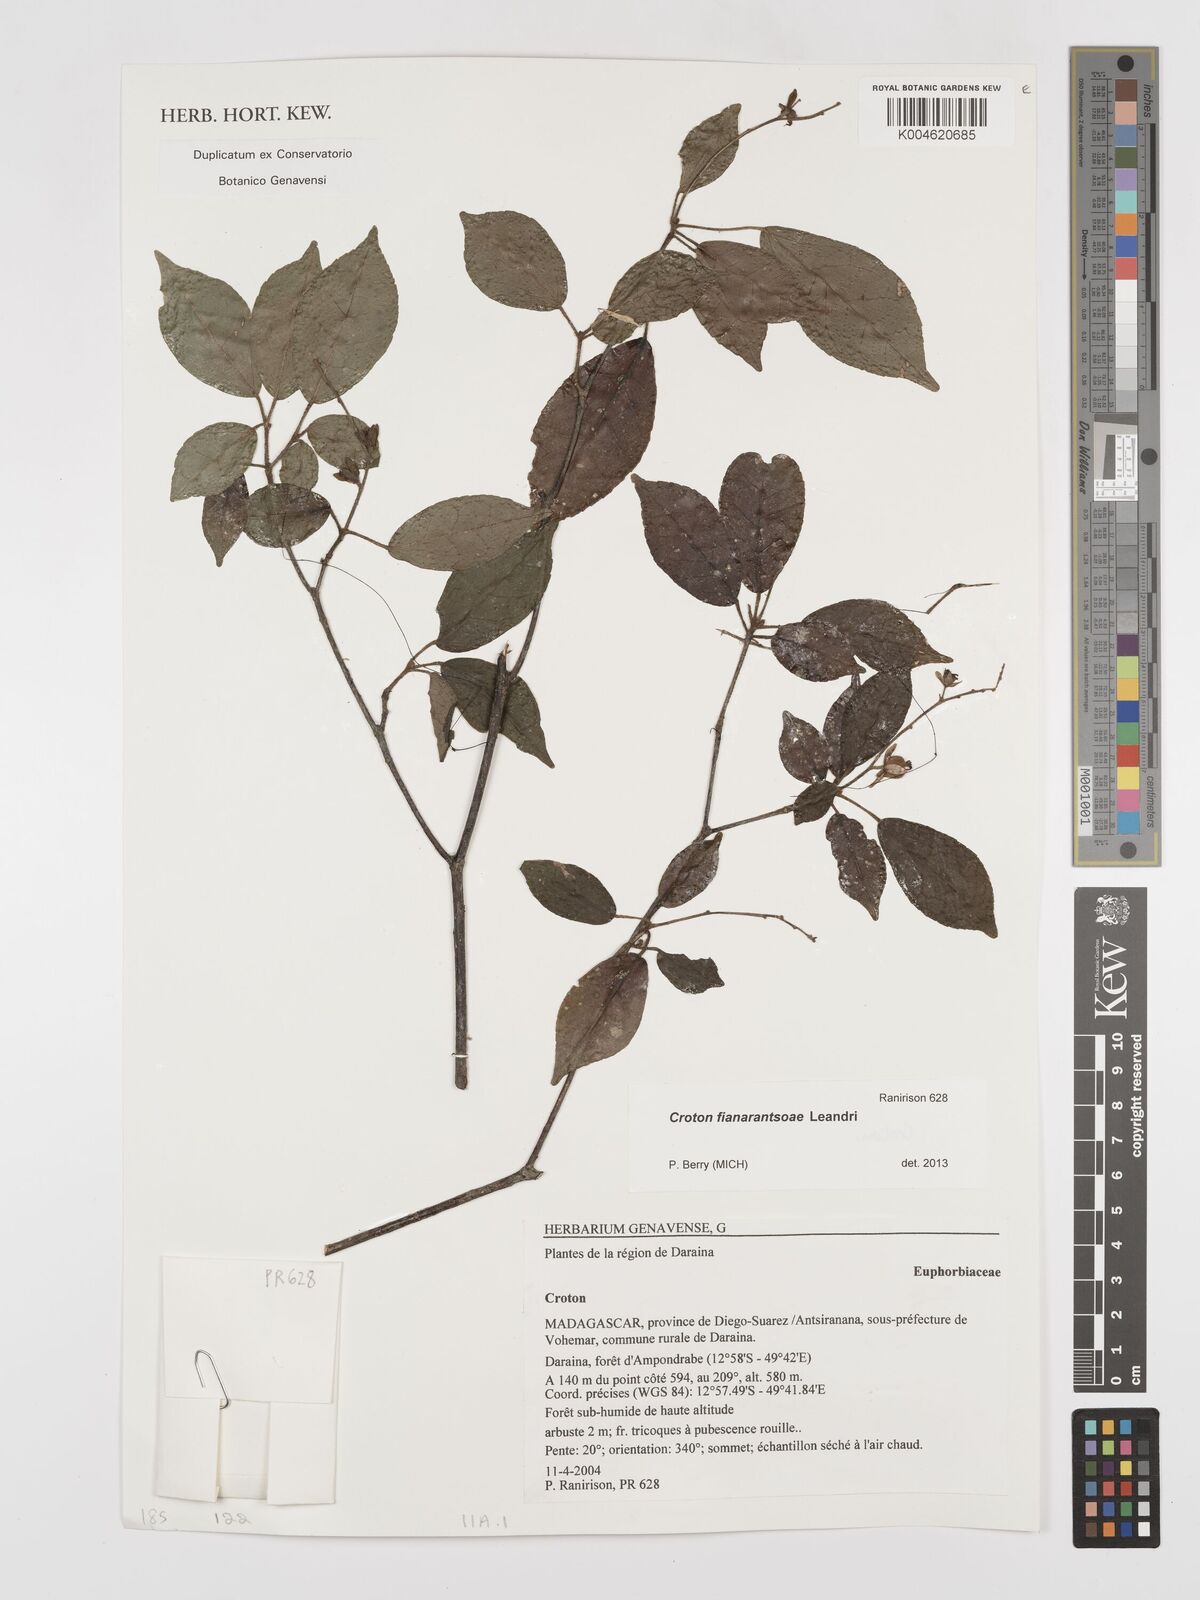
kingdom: Plantae
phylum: Tracheophyta
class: Magnoliopsida
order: Malpighiales
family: Euphorbiaceae
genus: Croton
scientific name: Croton
